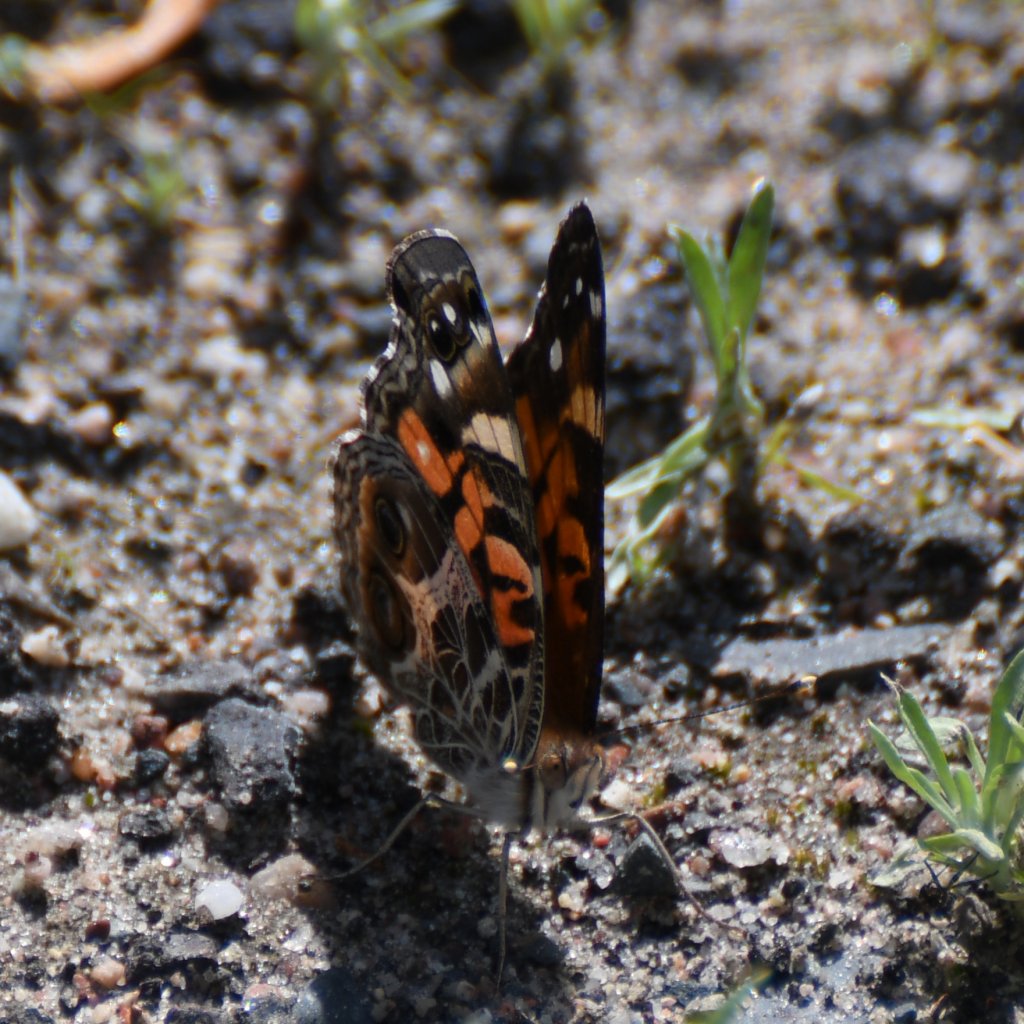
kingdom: Animalia
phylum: Arthropoda
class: Insecta
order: Lepidoptera
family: Nymphalidae
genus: Vanessa
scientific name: Vanessa virginiensis
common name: American Lady
